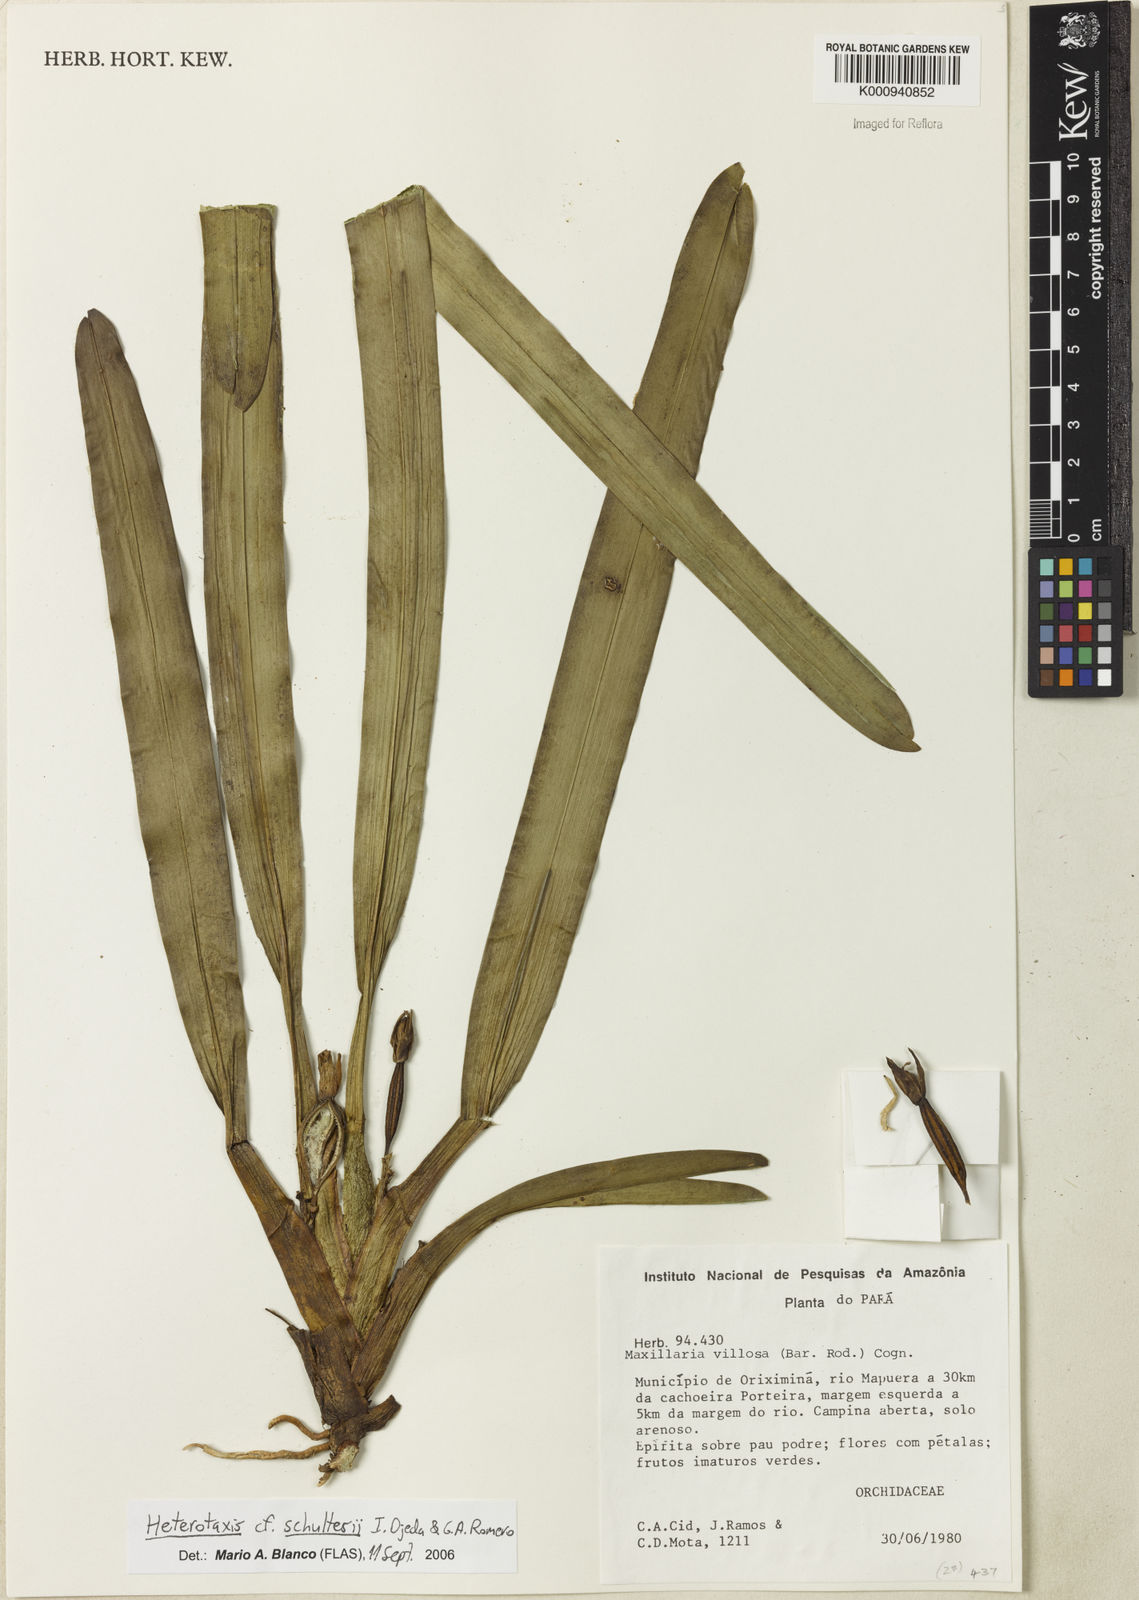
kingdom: Plantae
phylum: Tracheophyta
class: Liliopsida
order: Asparagales
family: Orchidaceae
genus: Maxillaria
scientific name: Maxillaria schultesii
